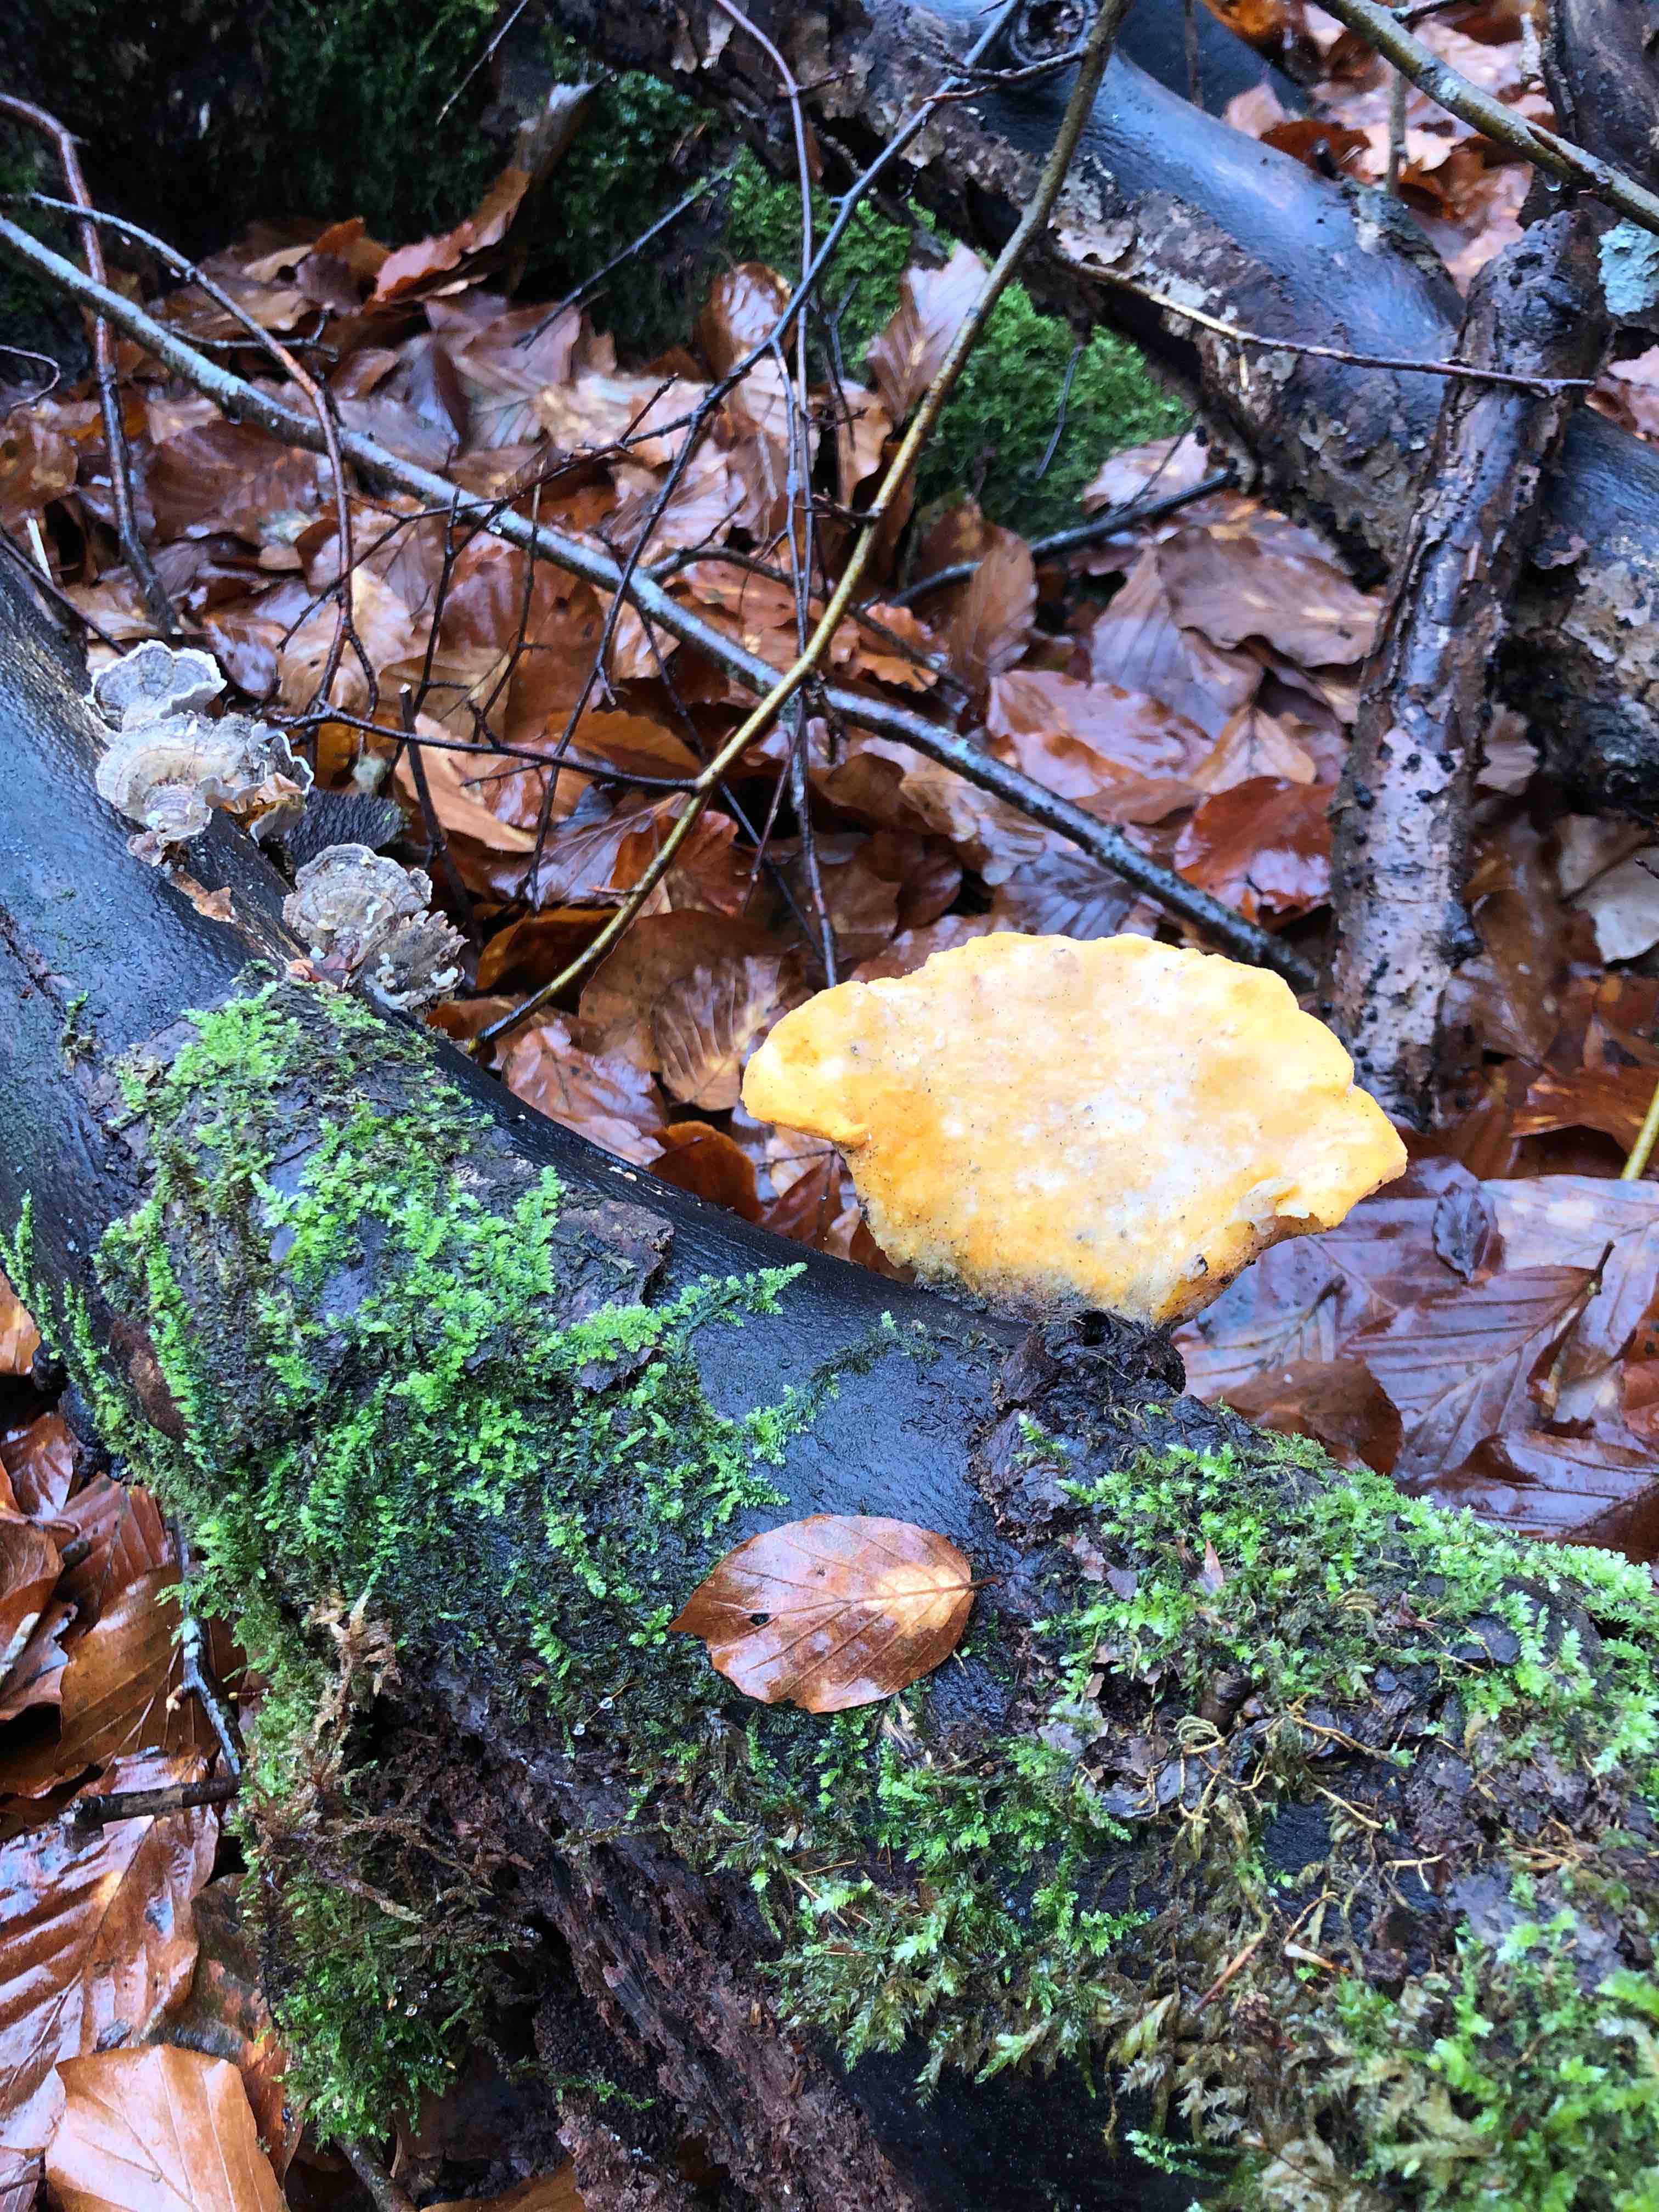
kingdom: Fungi
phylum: Ascomycota
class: Sordariomycetes
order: Hypocreales
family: Hypocreaceae
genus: Protocrea
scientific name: Protocrea pallida
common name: bleg kødkerne
